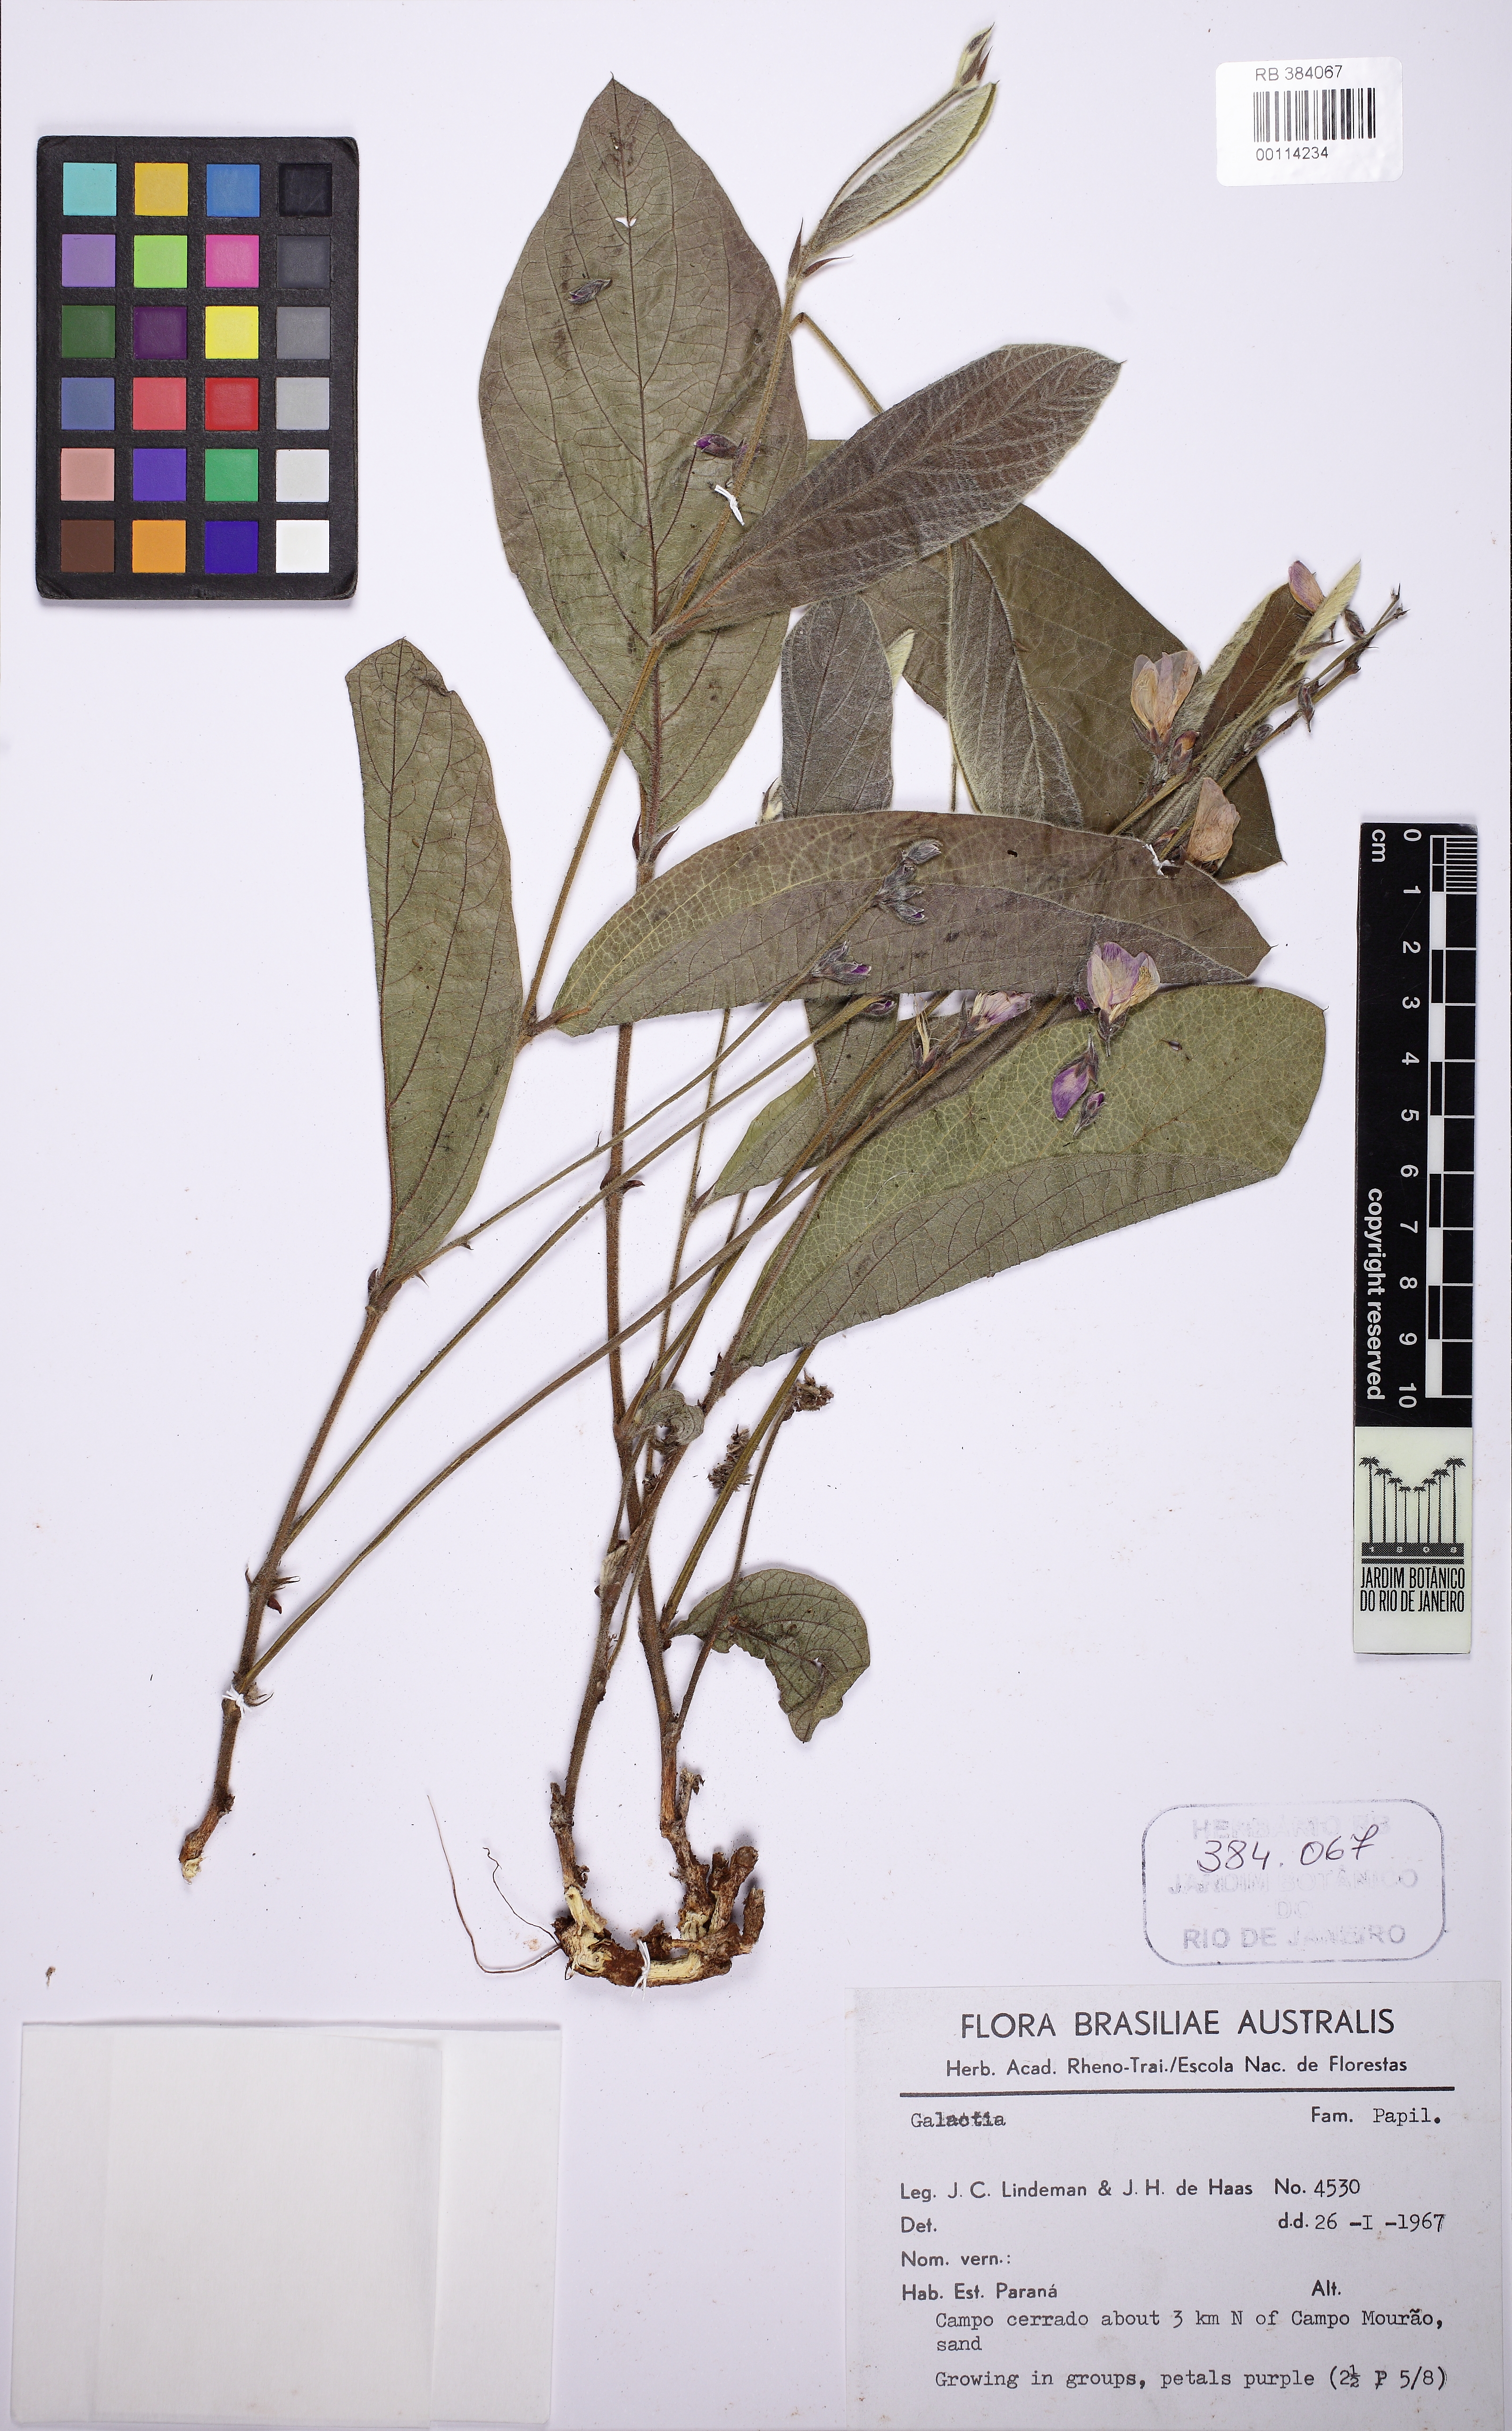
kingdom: Plantae
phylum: Tracheophyta
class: Magnoliopsida
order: Fabales
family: Fabaceae
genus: Cerradicola
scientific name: Cerradicola boavista
